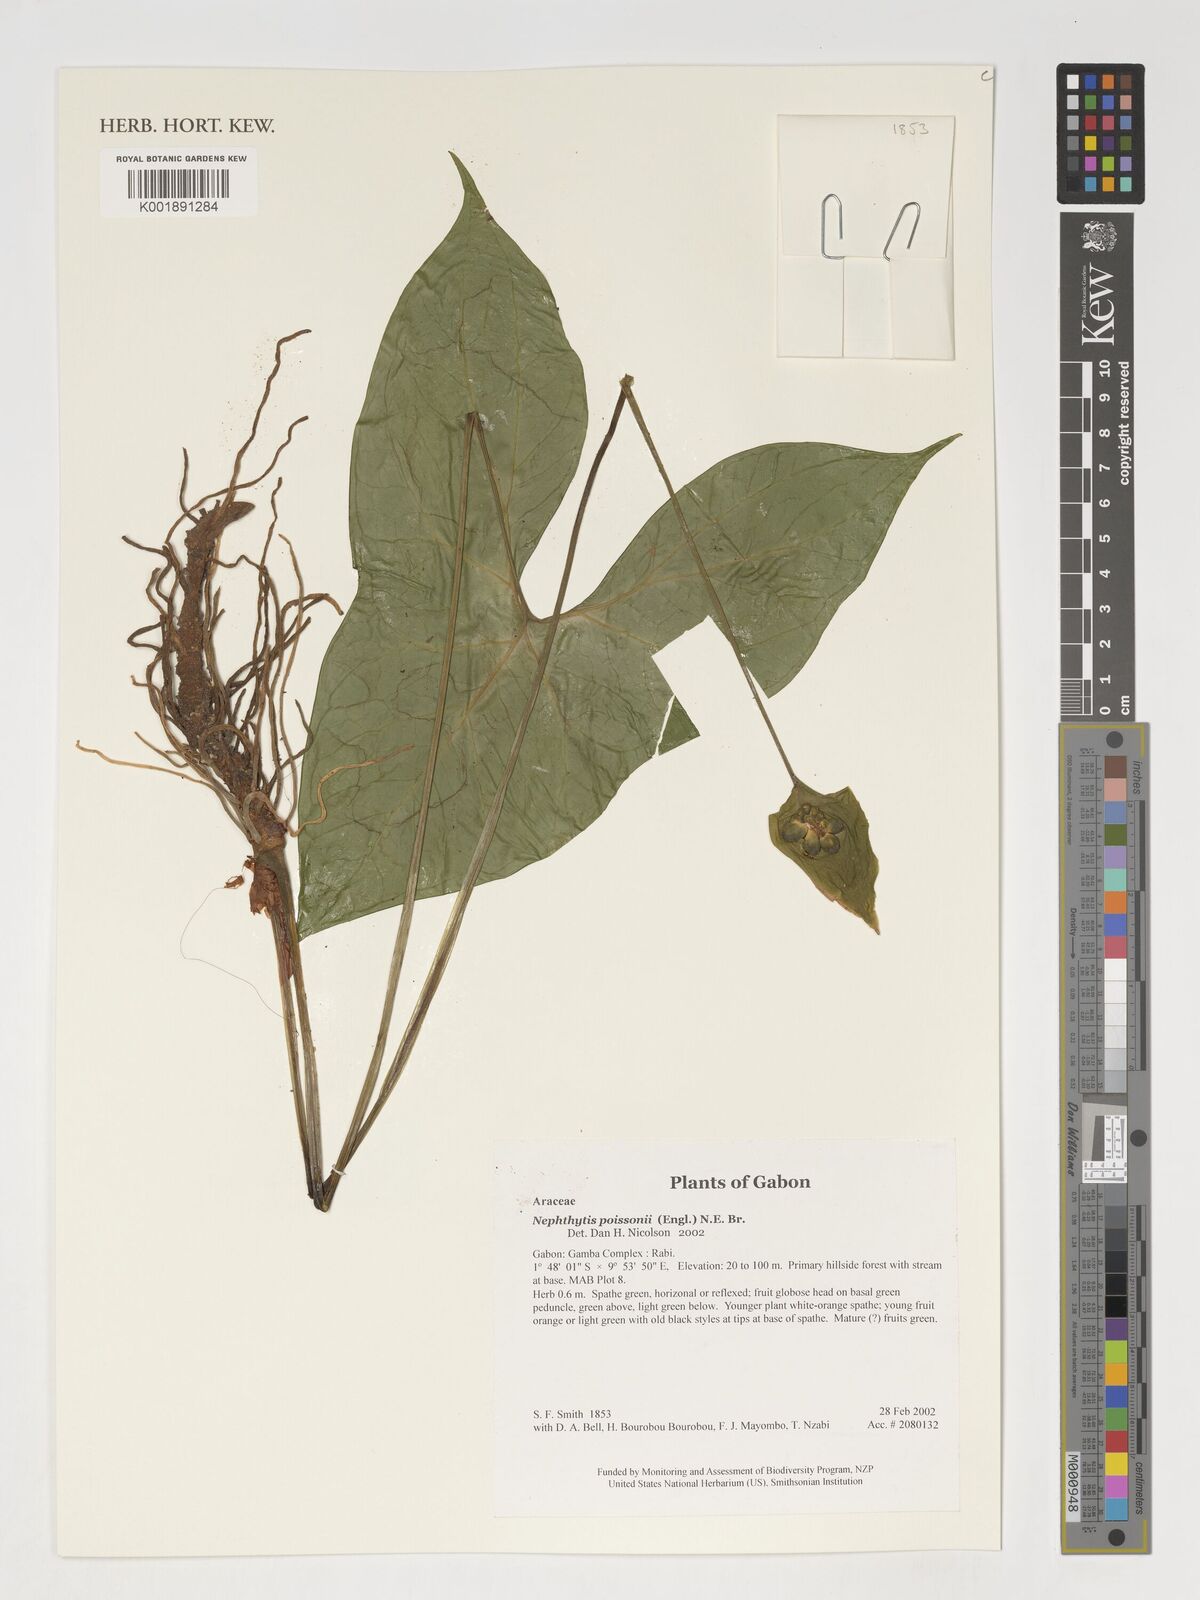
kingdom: Plantae
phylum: Tracheophyta
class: Liliopsida
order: Alismatales
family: Araceae
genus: Nephthytis
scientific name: Nephthytis poissonii
